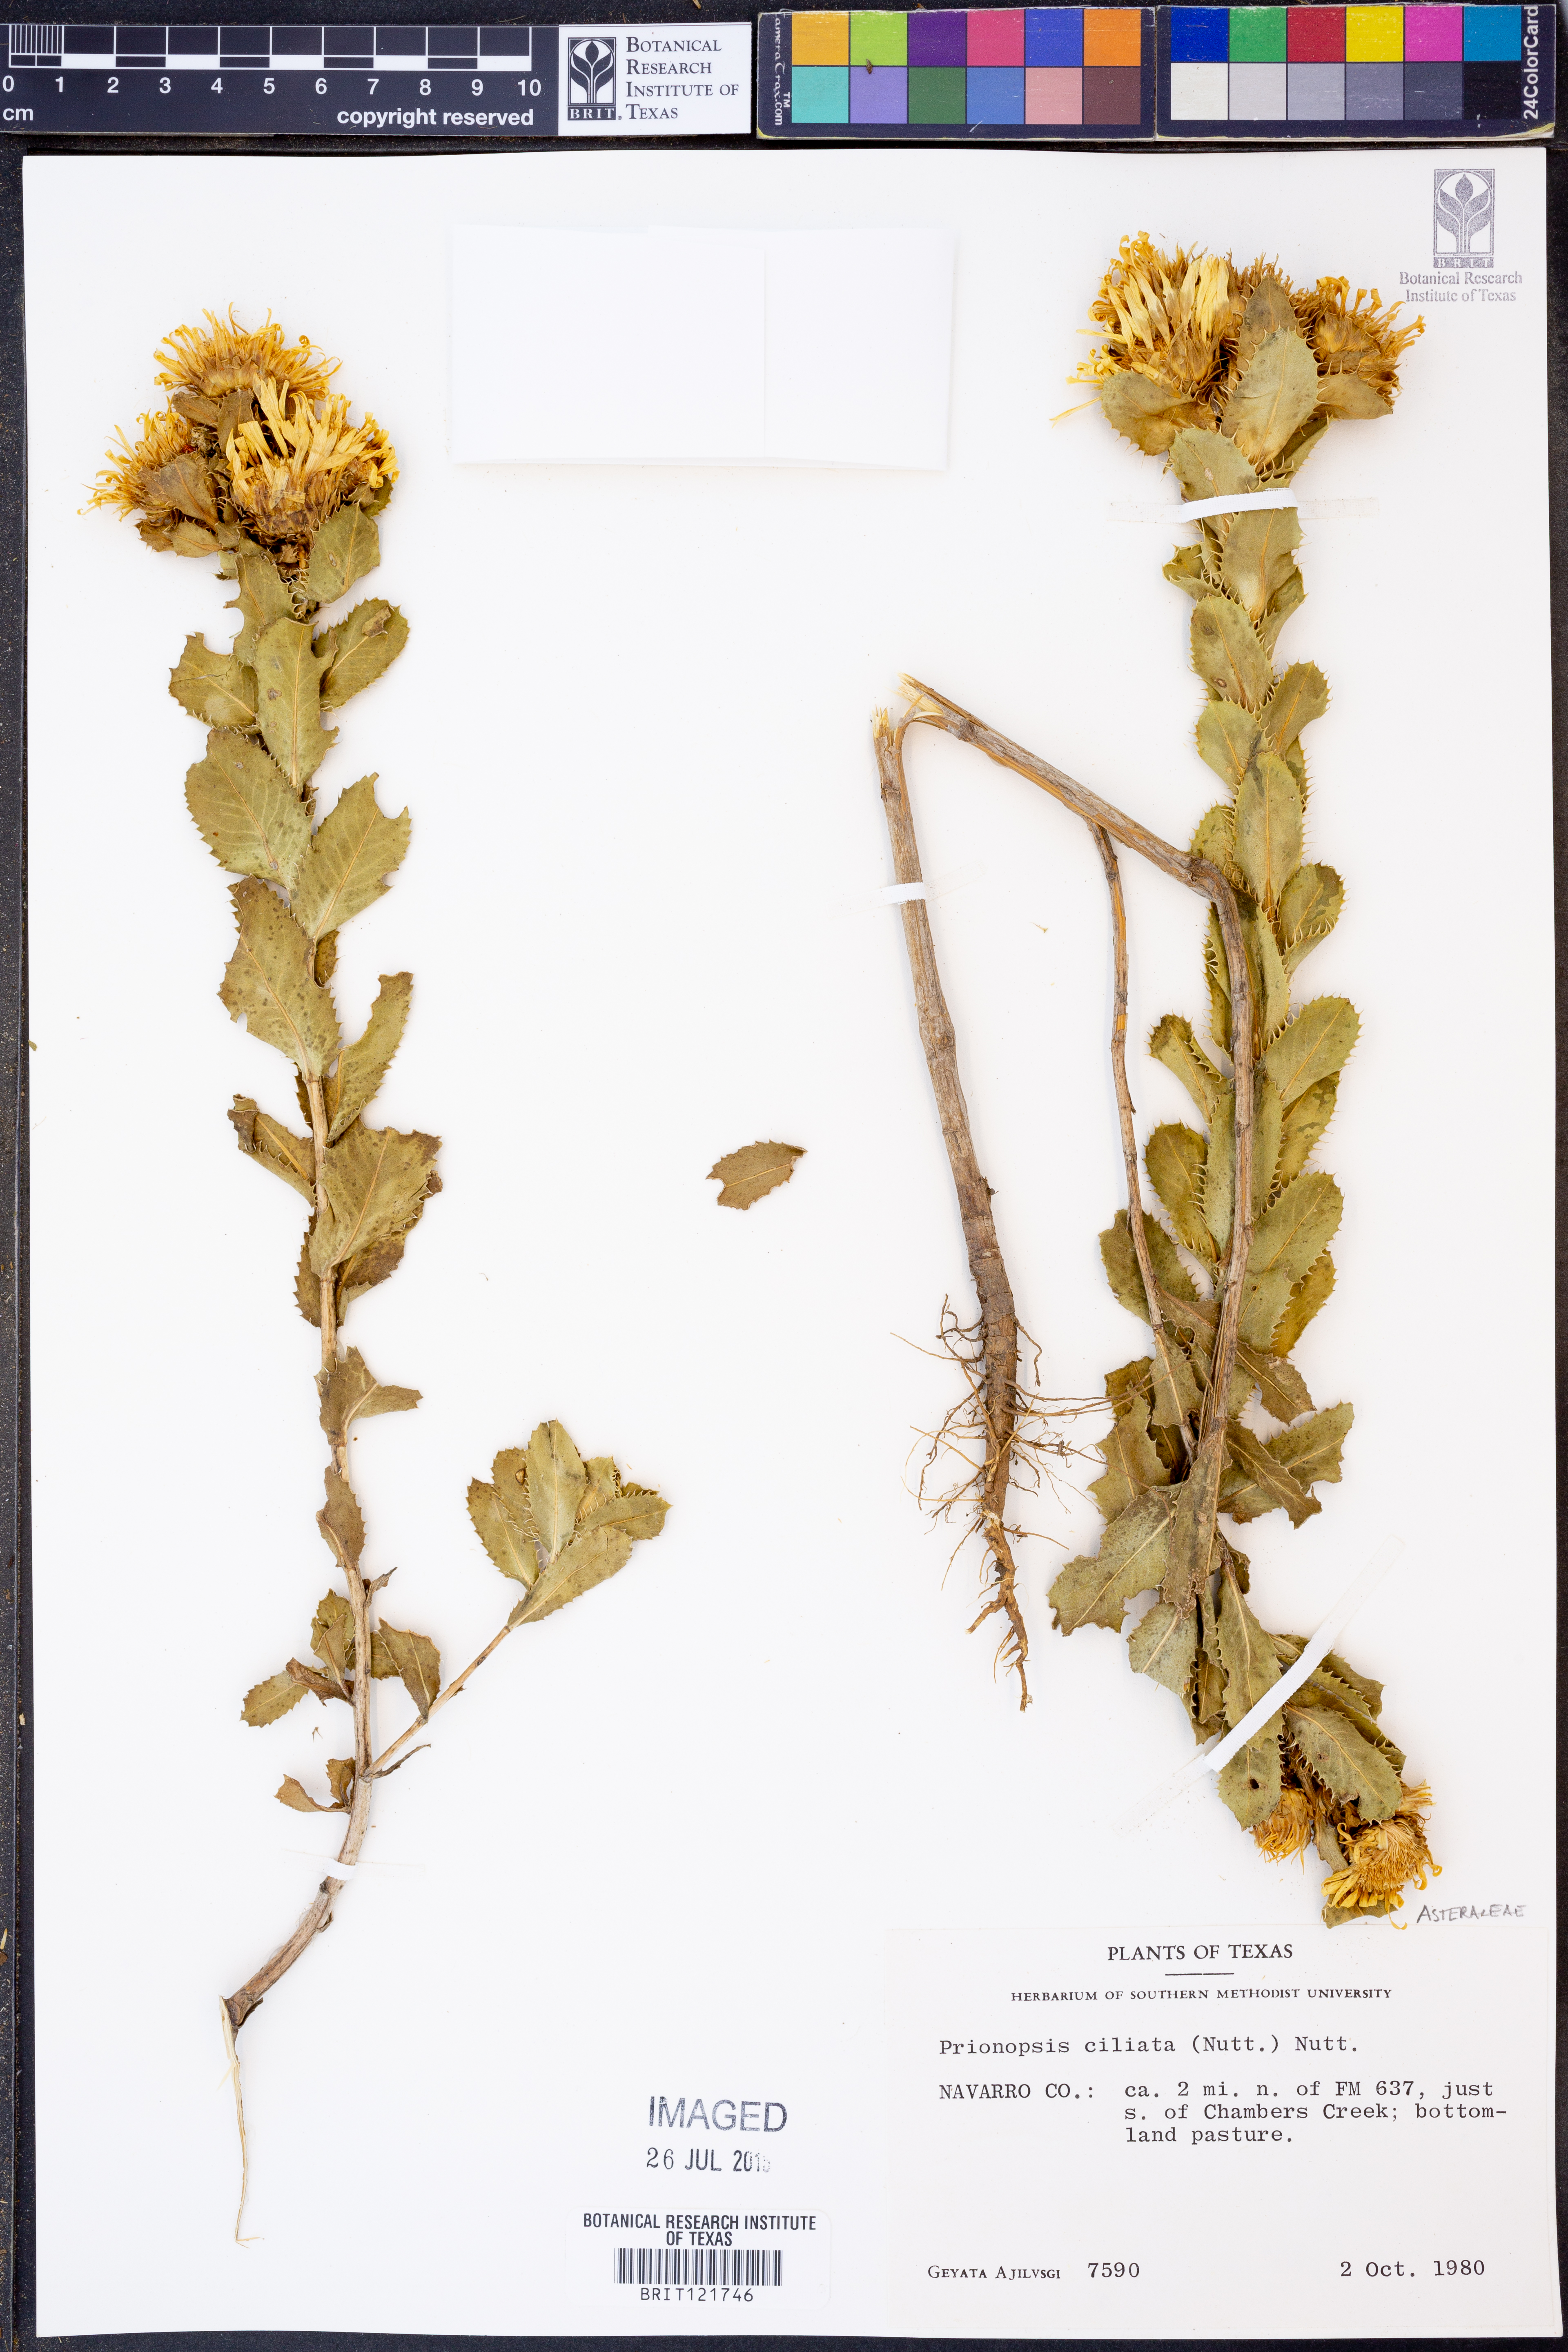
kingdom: Plantae
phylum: Tracheophyta
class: Magnoliopsida
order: Asterales
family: Asteraceae
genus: Grindelia
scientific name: Grindelia ciliata
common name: Goldenweed
